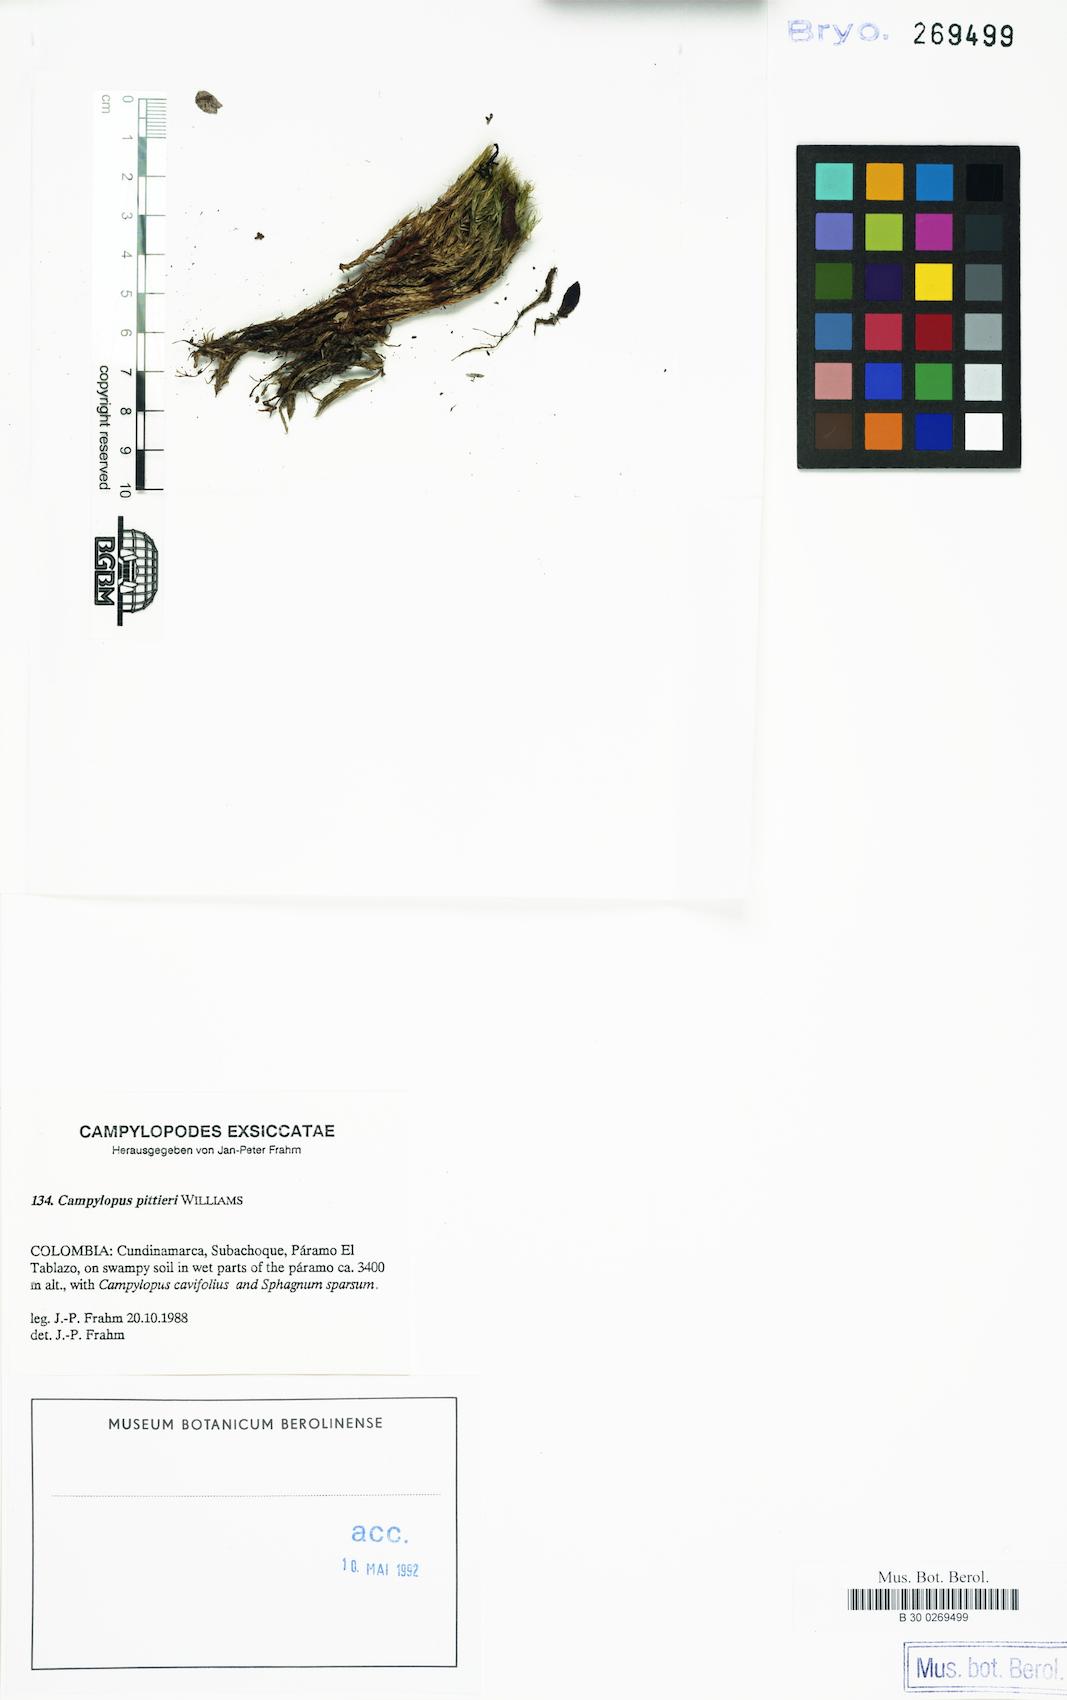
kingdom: Plantae
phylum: Bryophyta
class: Bryopsida
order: Dicranales
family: Leucobryaceae
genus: Campylopus
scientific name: Campylopus pittieri
